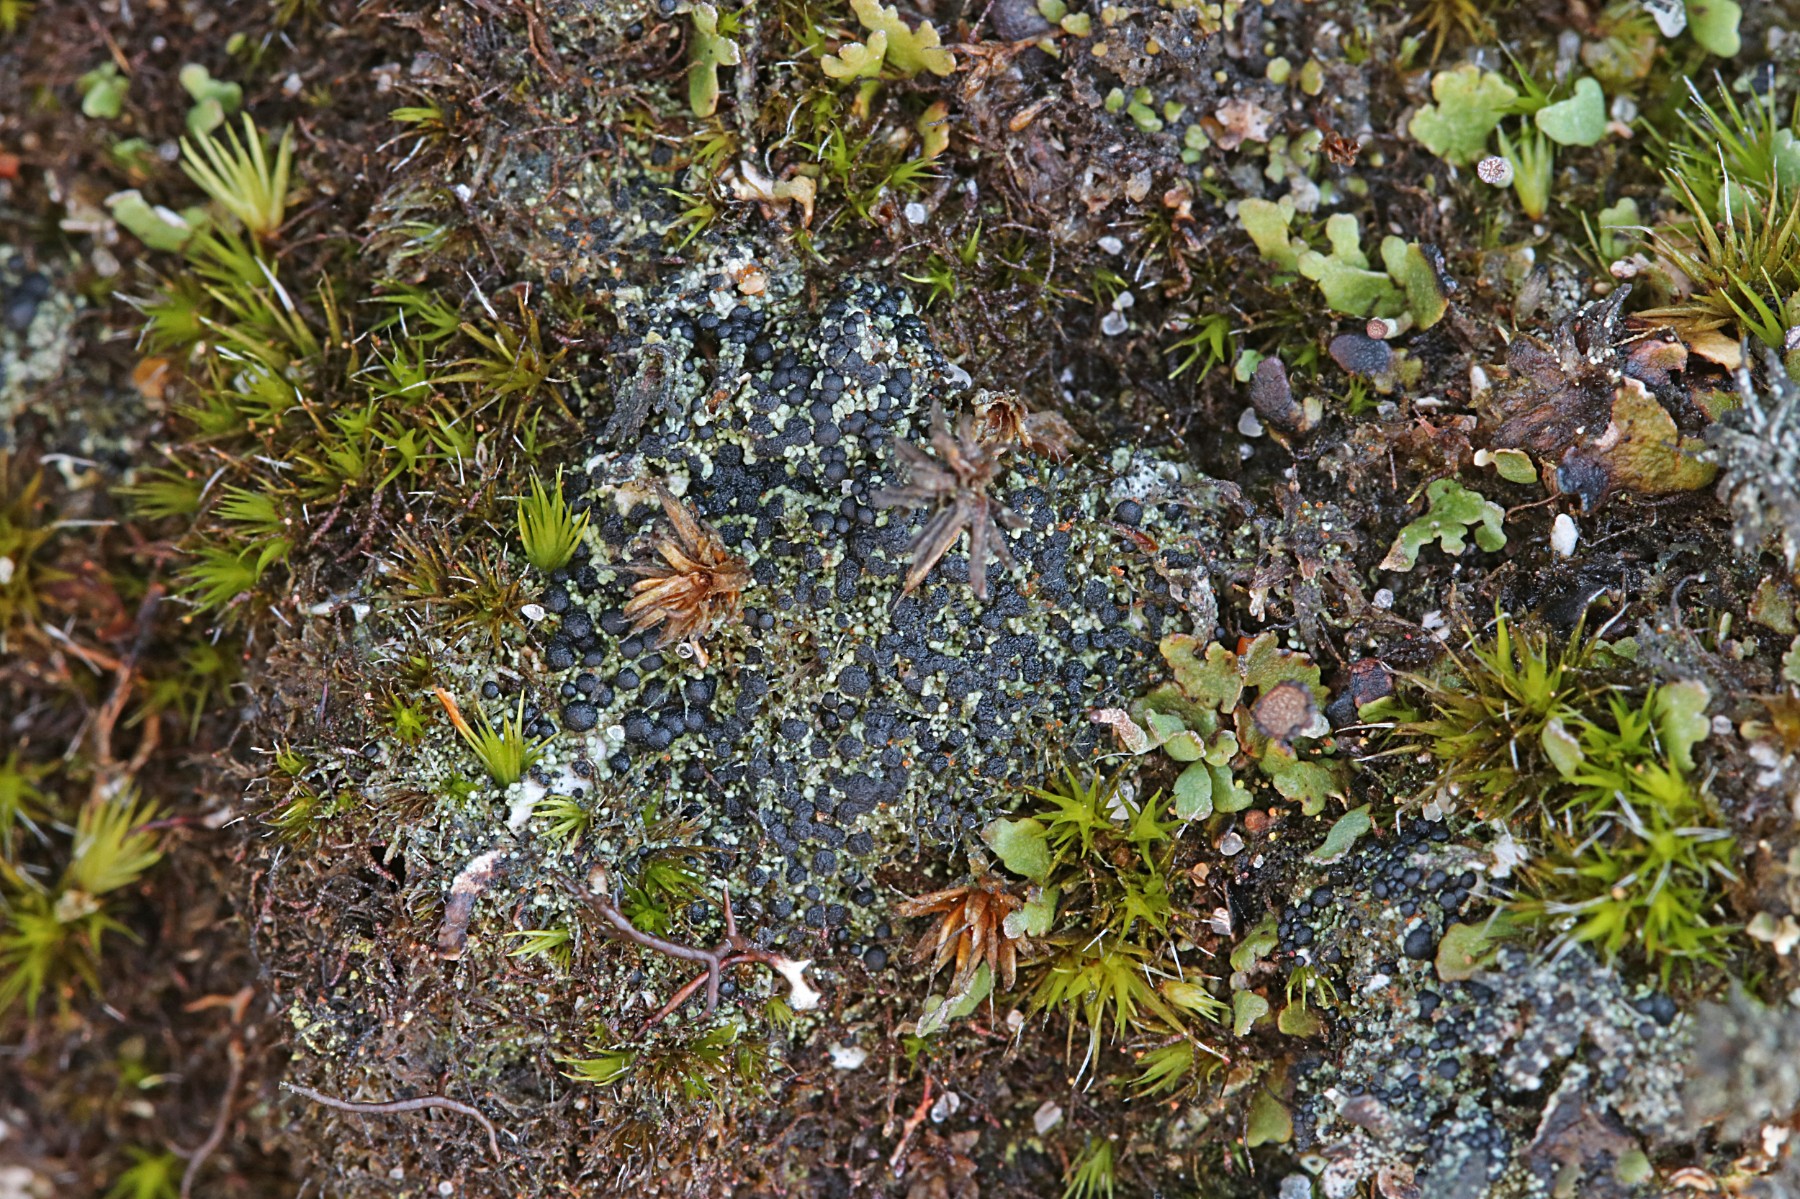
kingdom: Fungi
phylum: Ascomycota
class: Lecanoromycetes
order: Lecanorales
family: Byssolomataceae
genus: Micarea
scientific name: Micarea lignaria
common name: tørve-knaplav
